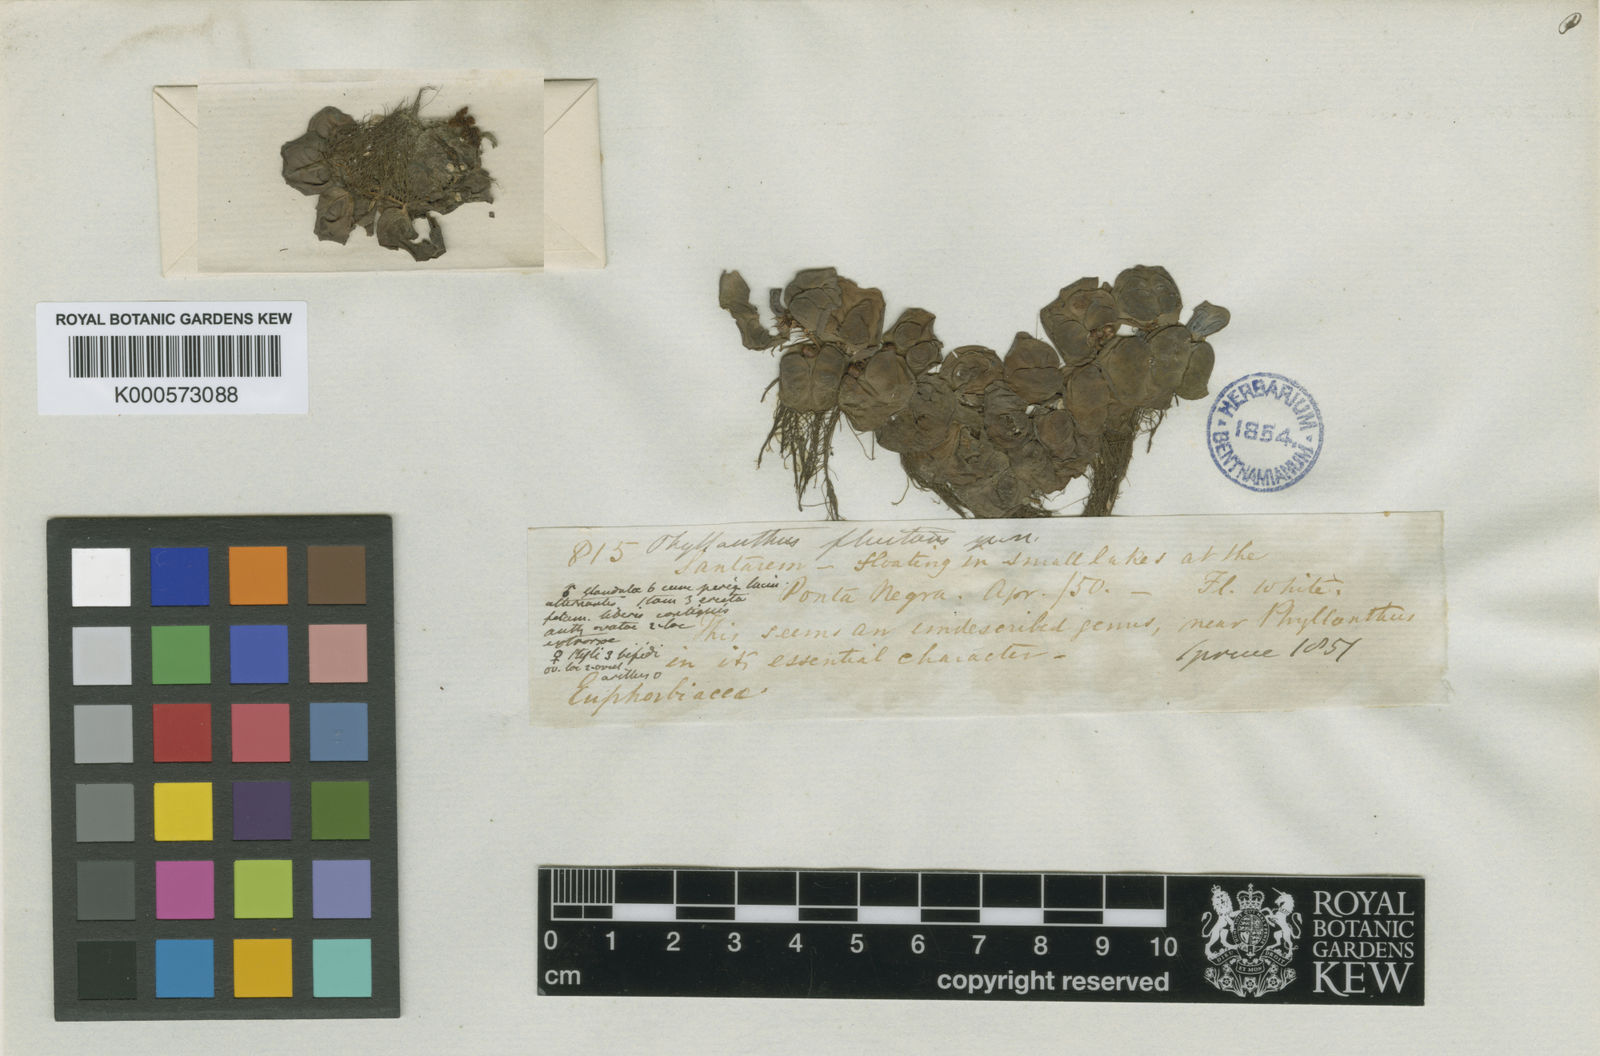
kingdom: Plantae
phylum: Tracheophyta
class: Magnoliopsida
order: Malpighiales
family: Phyllanthaceae
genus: Phyllanthus
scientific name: Phyllanthus
